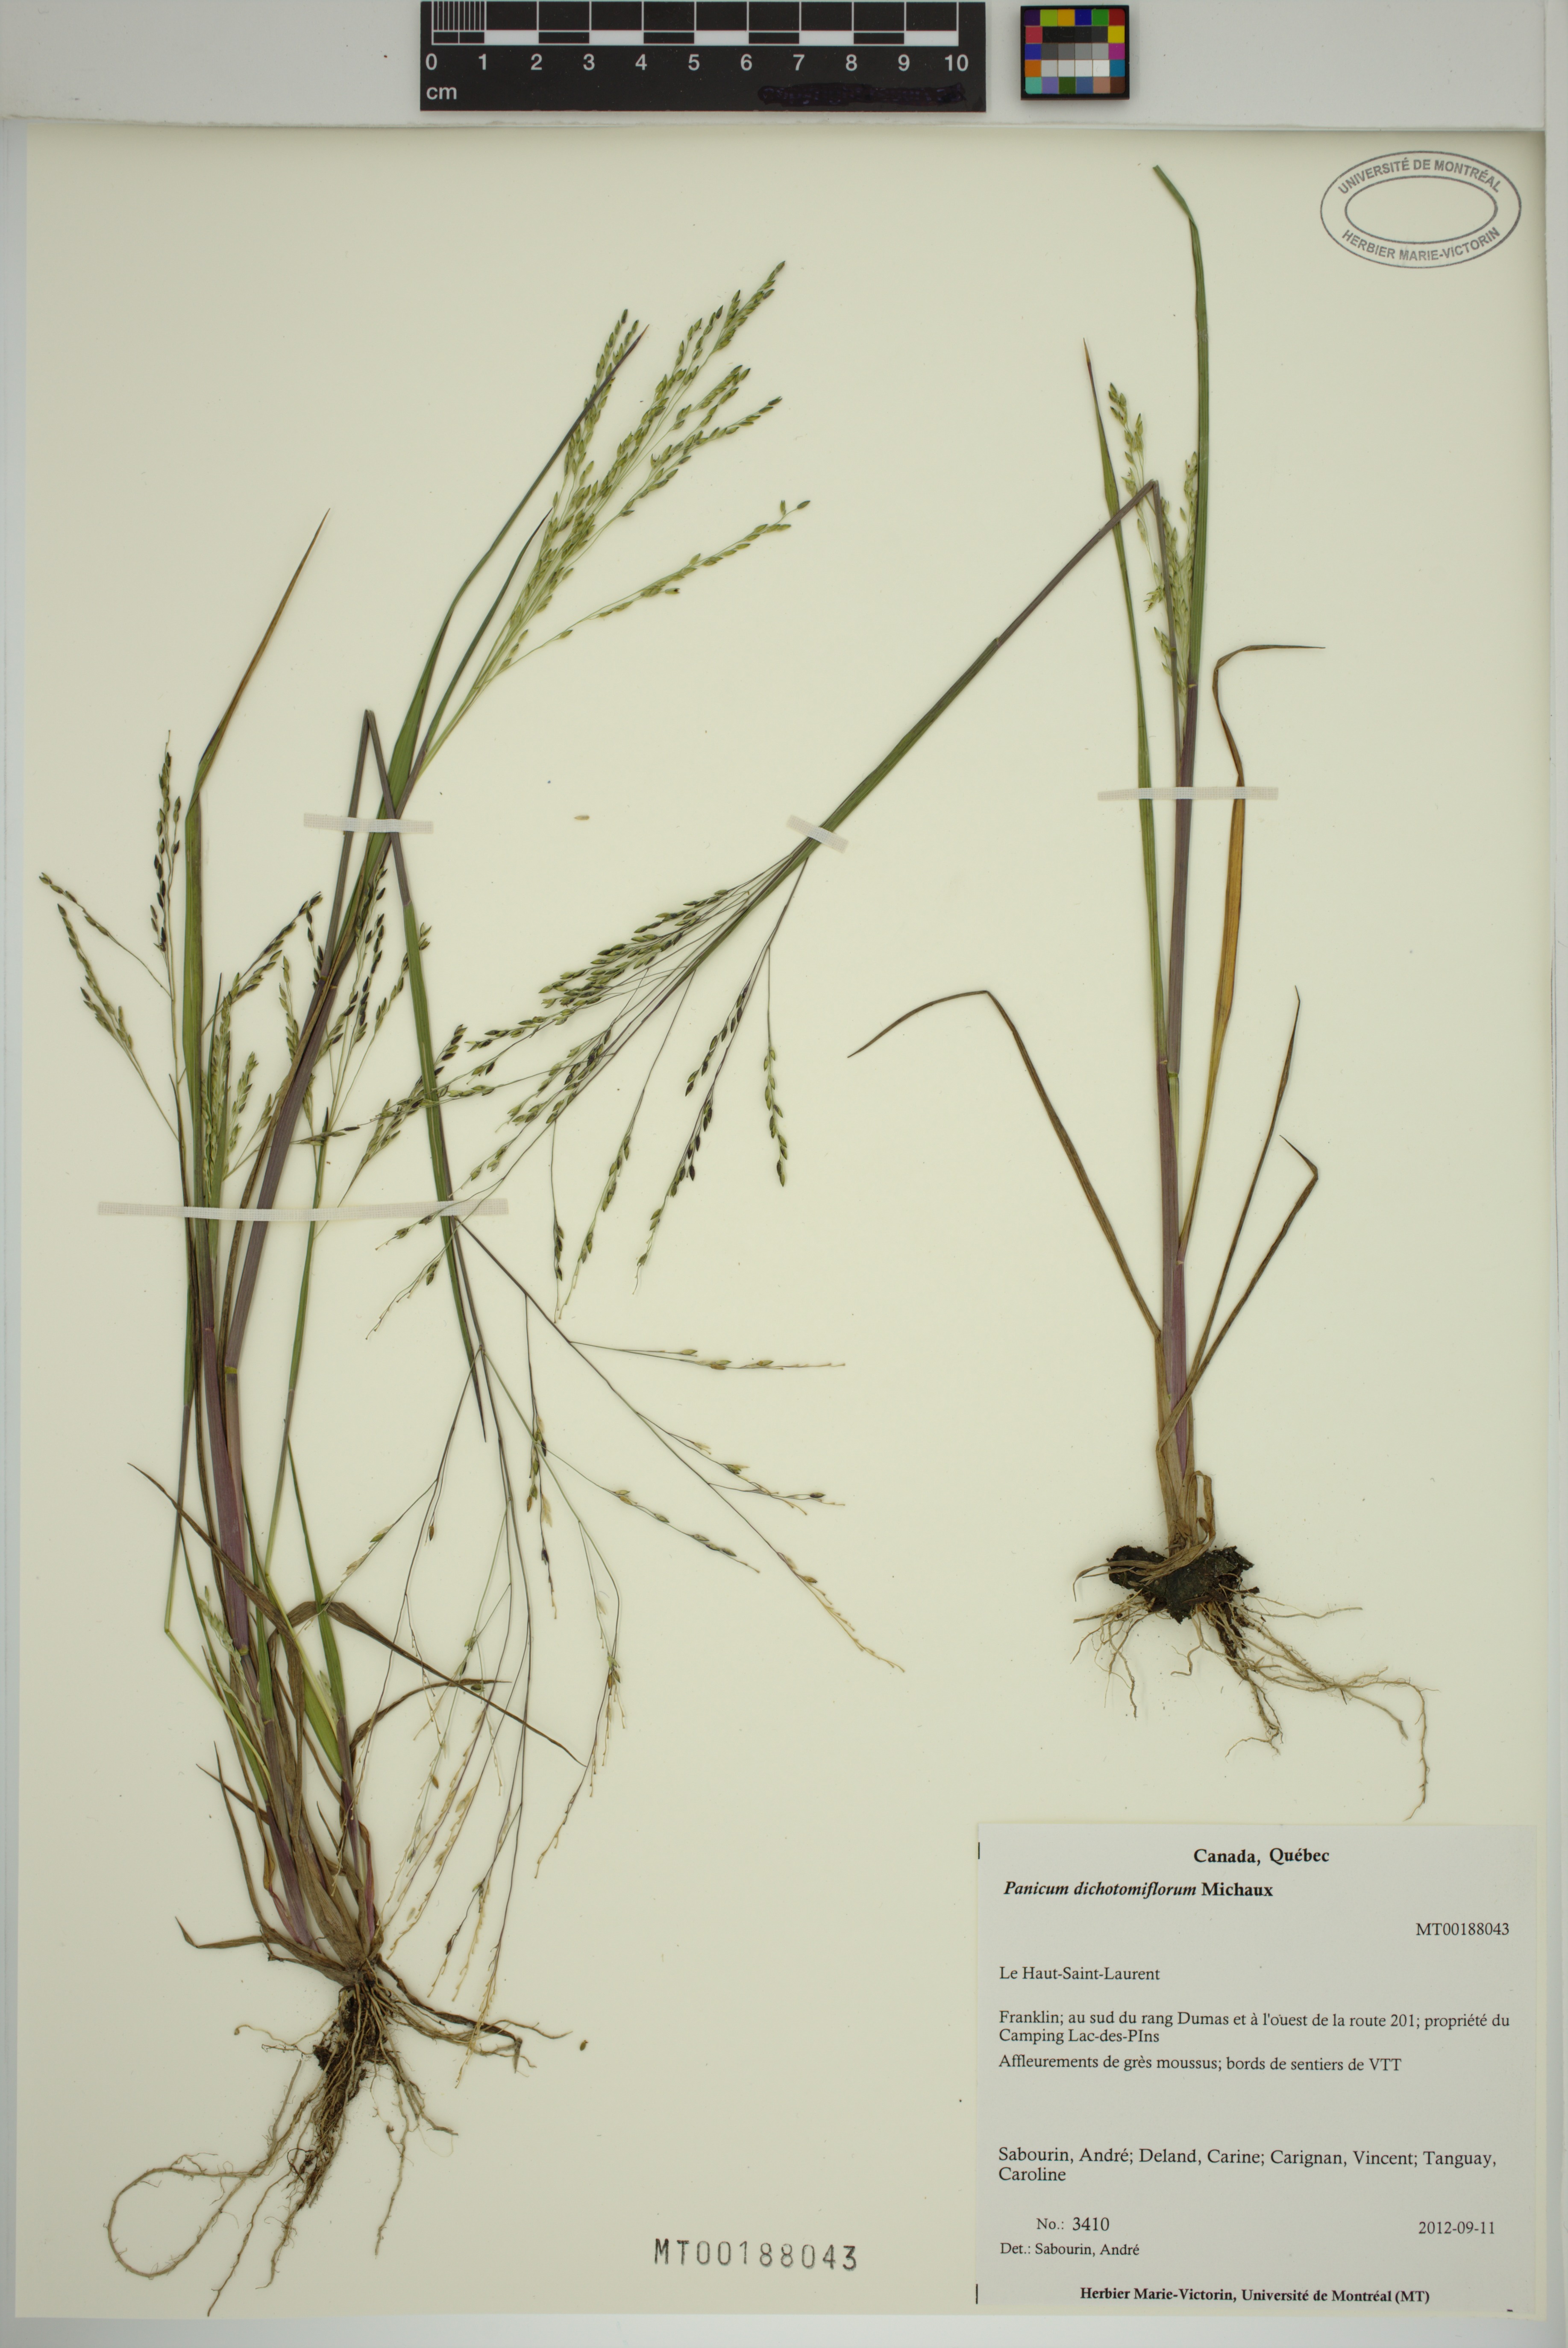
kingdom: Plantae
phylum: Tracheophyta
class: Liliopsida
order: Poales
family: Poaceae
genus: Panicum
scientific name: Panicum dichotomiflorum
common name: Autumn millet
